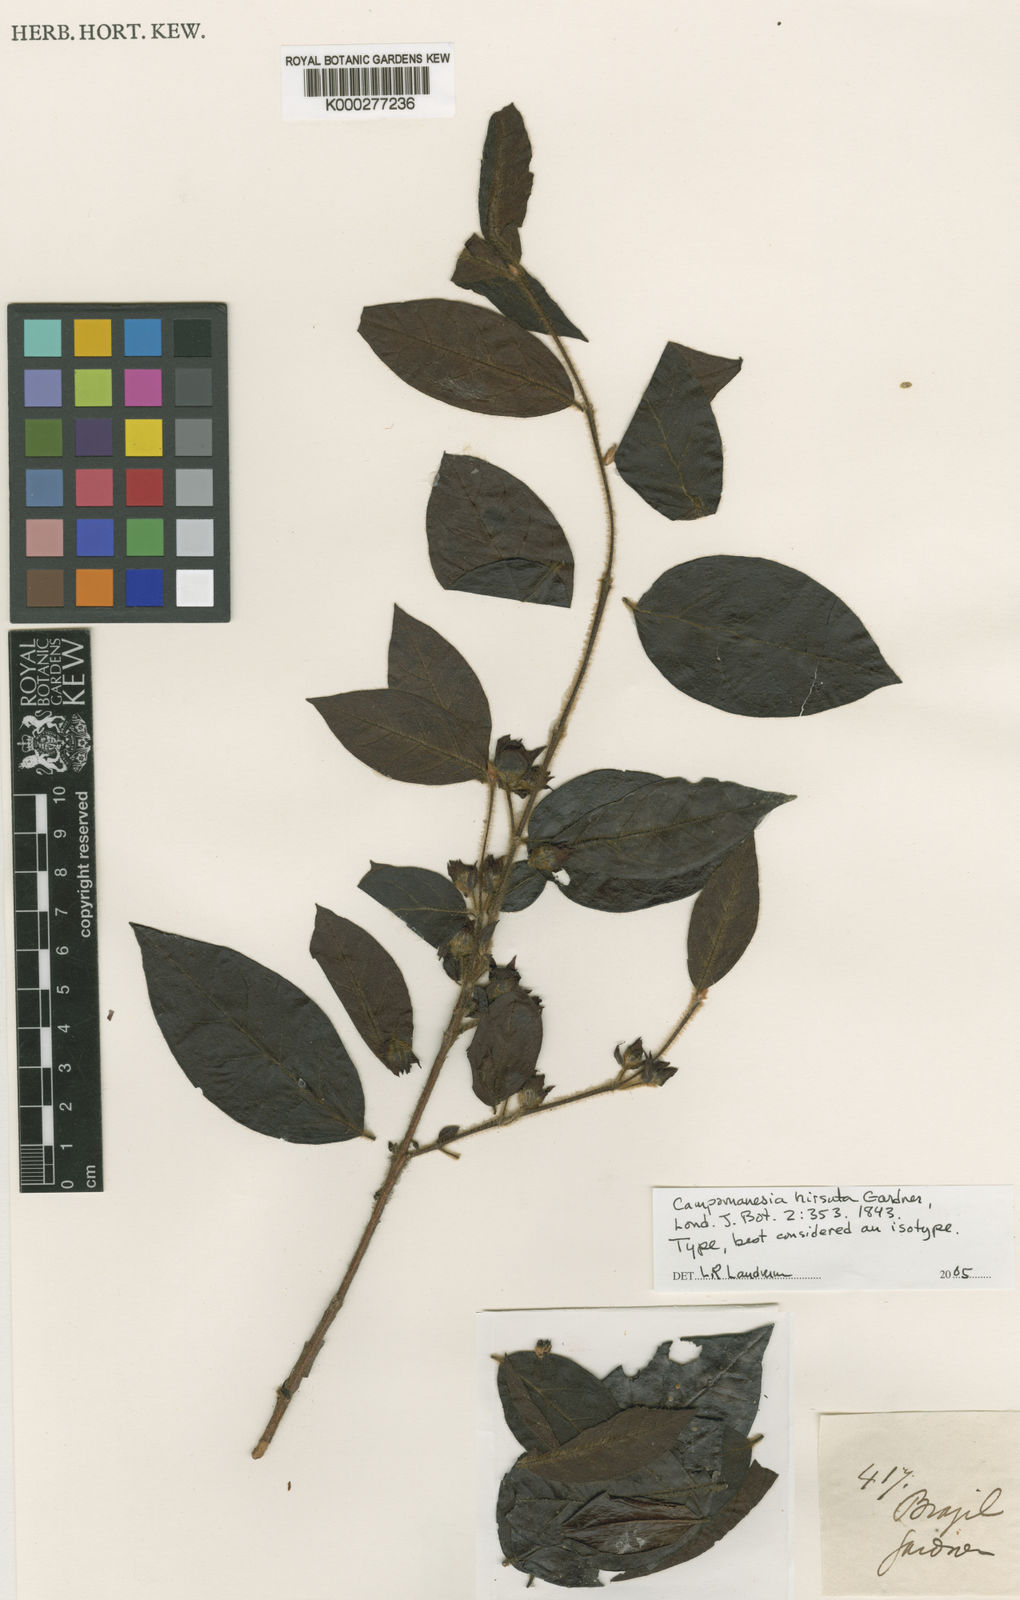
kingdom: Plantae
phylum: Tracheophyta
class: Magnoliopsida
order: Myrtales
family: Myrtaceae
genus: Campomanesia
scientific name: Campomanesia hirsuta
